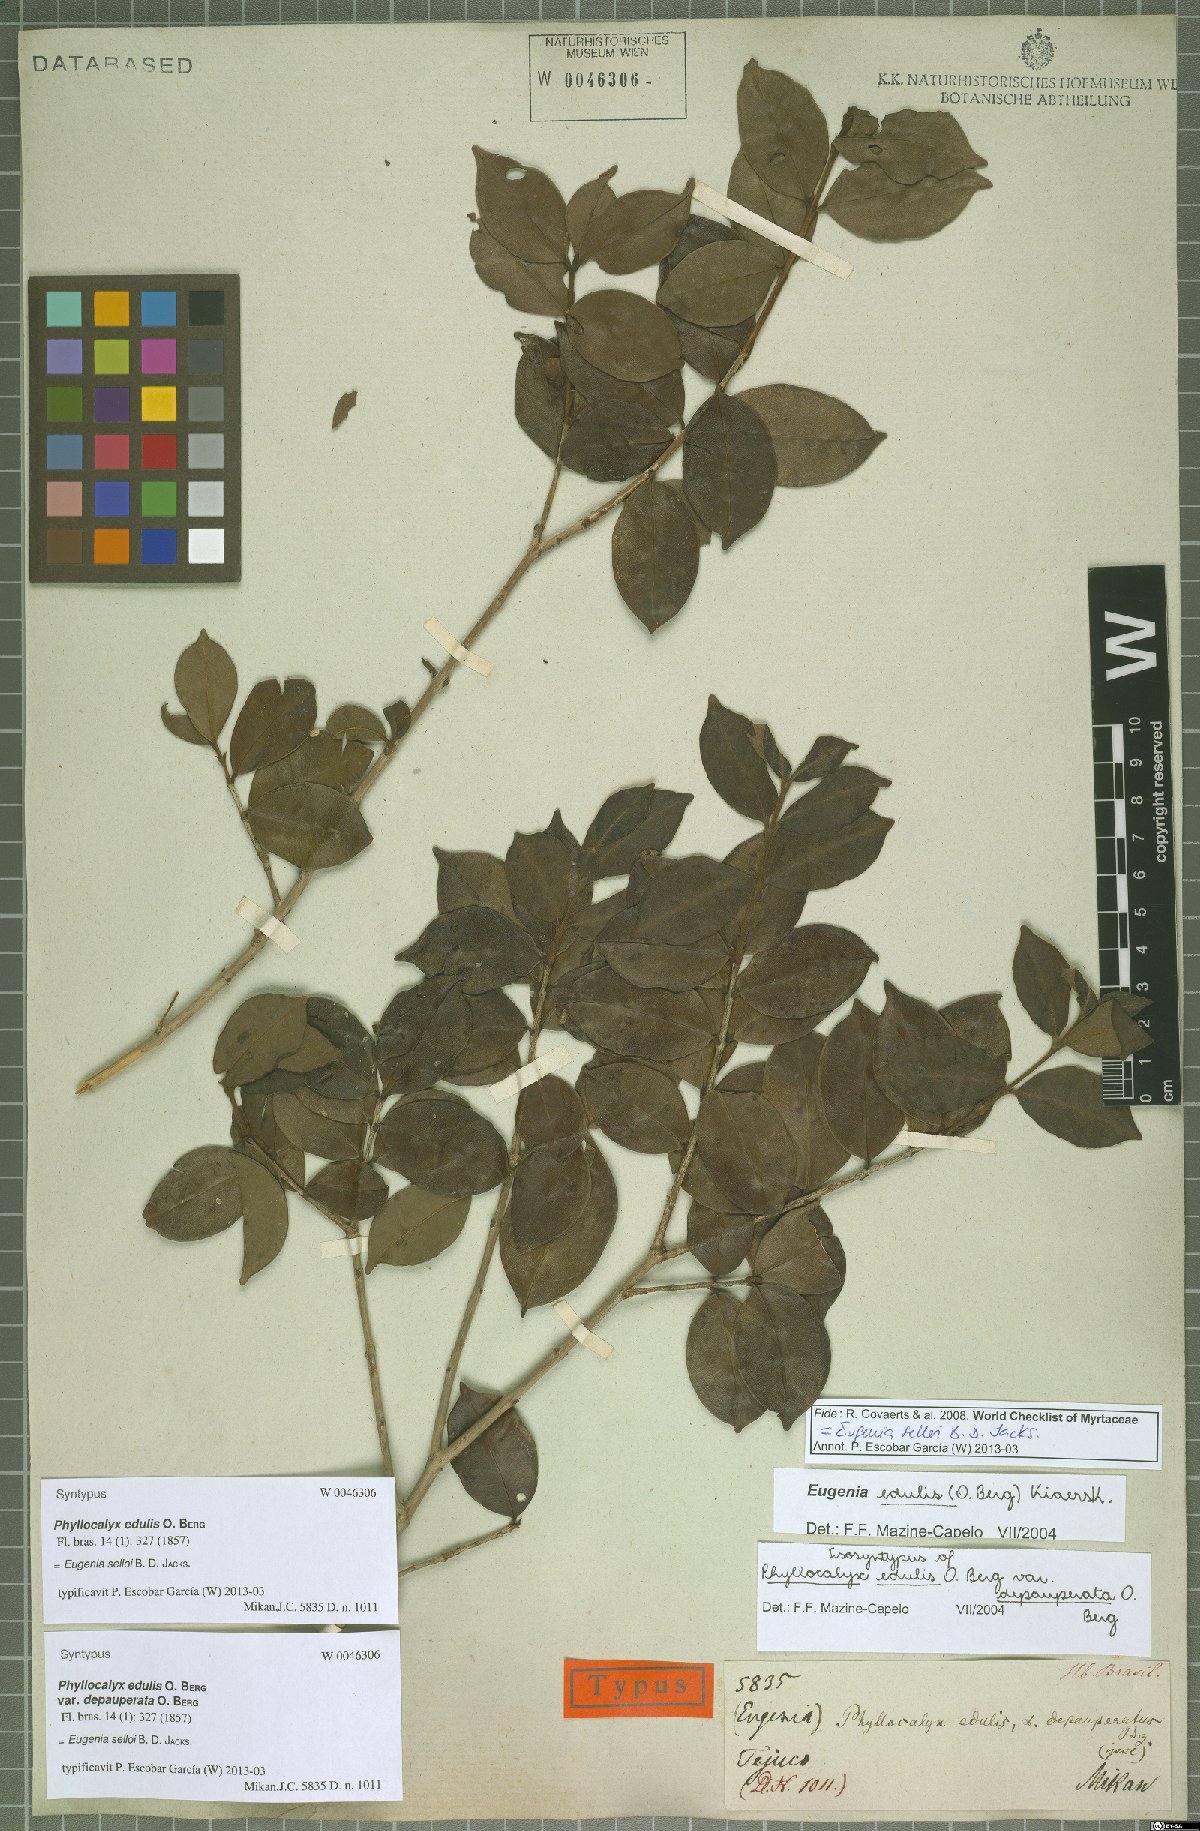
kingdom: Plantae
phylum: Tracheophyta
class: Magnoliopsida
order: Myrtales
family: Myrtaceae
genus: Eugenia
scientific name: Eugenia selloi
